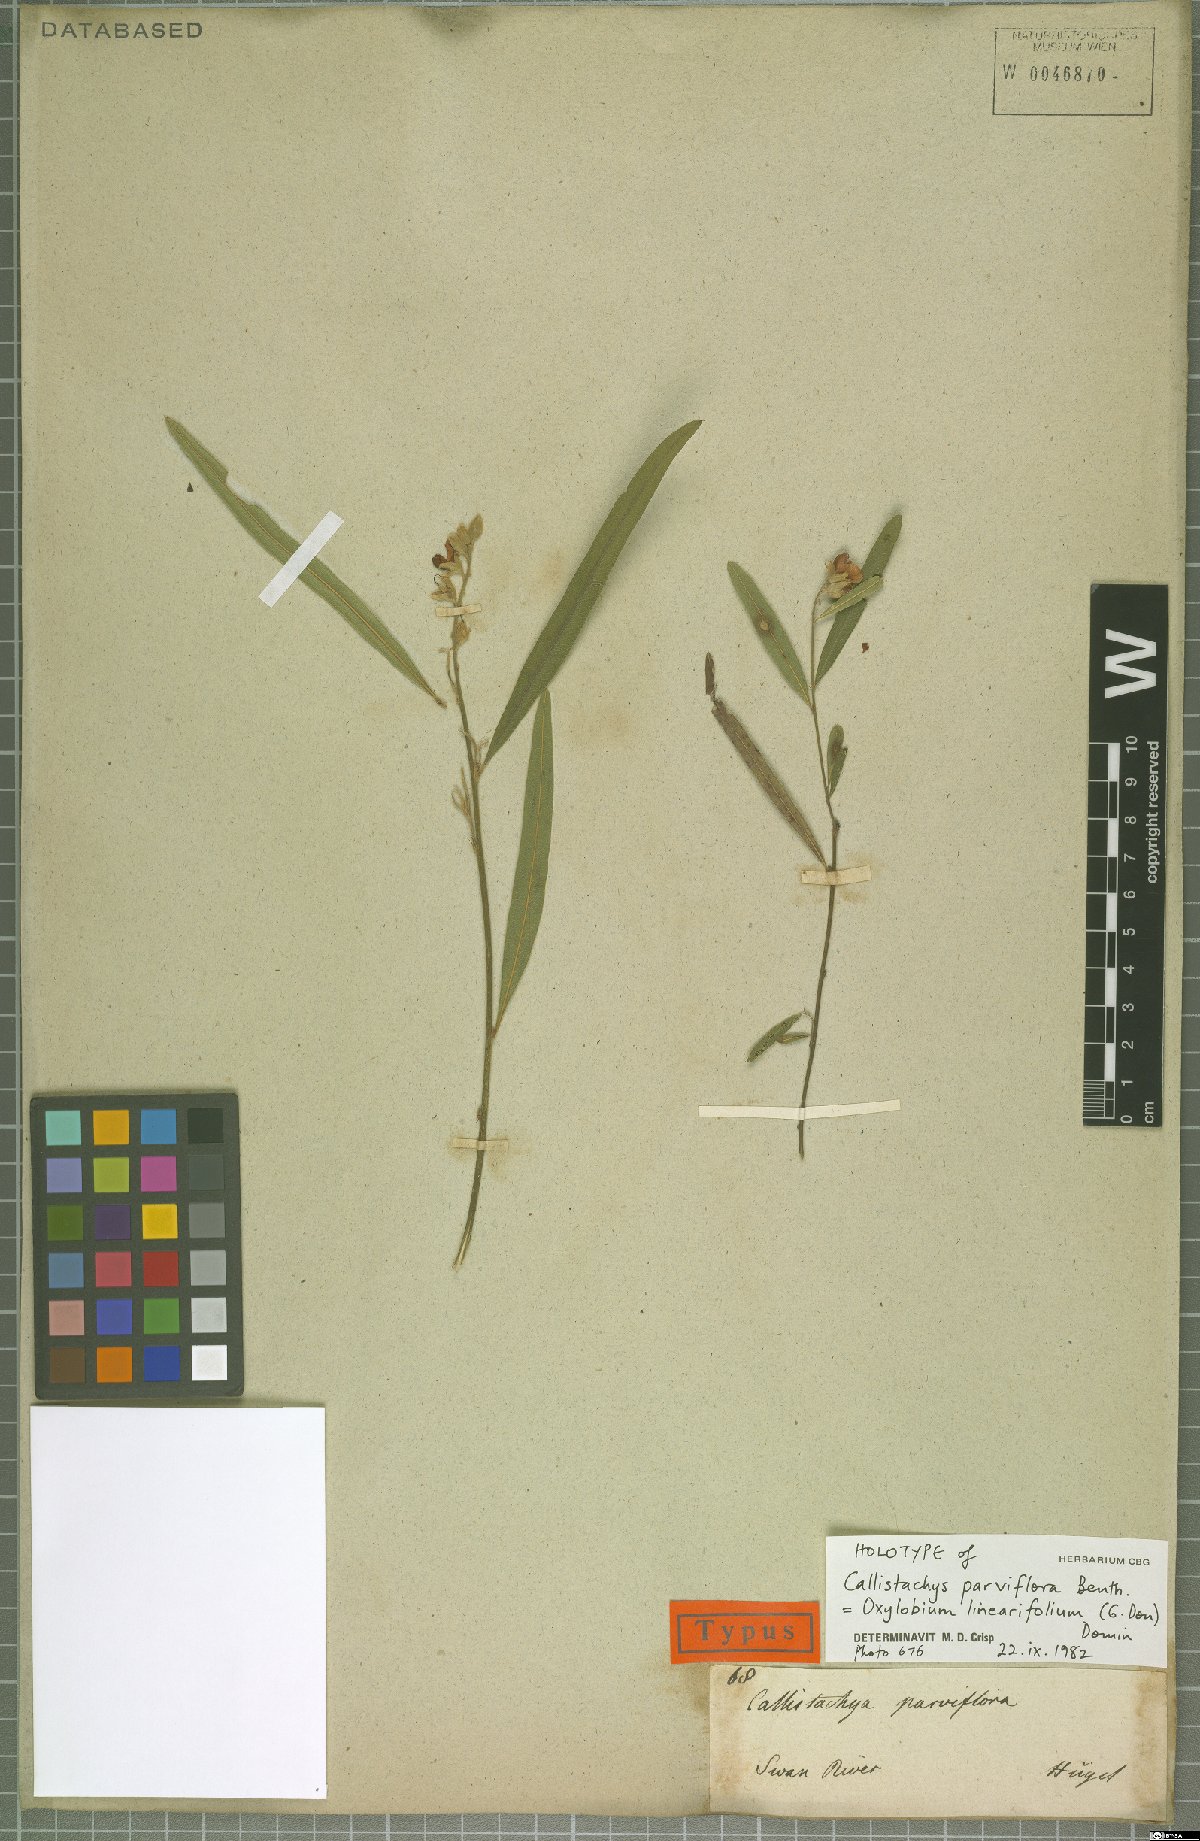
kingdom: Plantae
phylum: Tracheophyta
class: Magnoliopsida
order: Fabales
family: Fabaceae
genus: Callistachys
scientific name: Callistachys linariifolia
